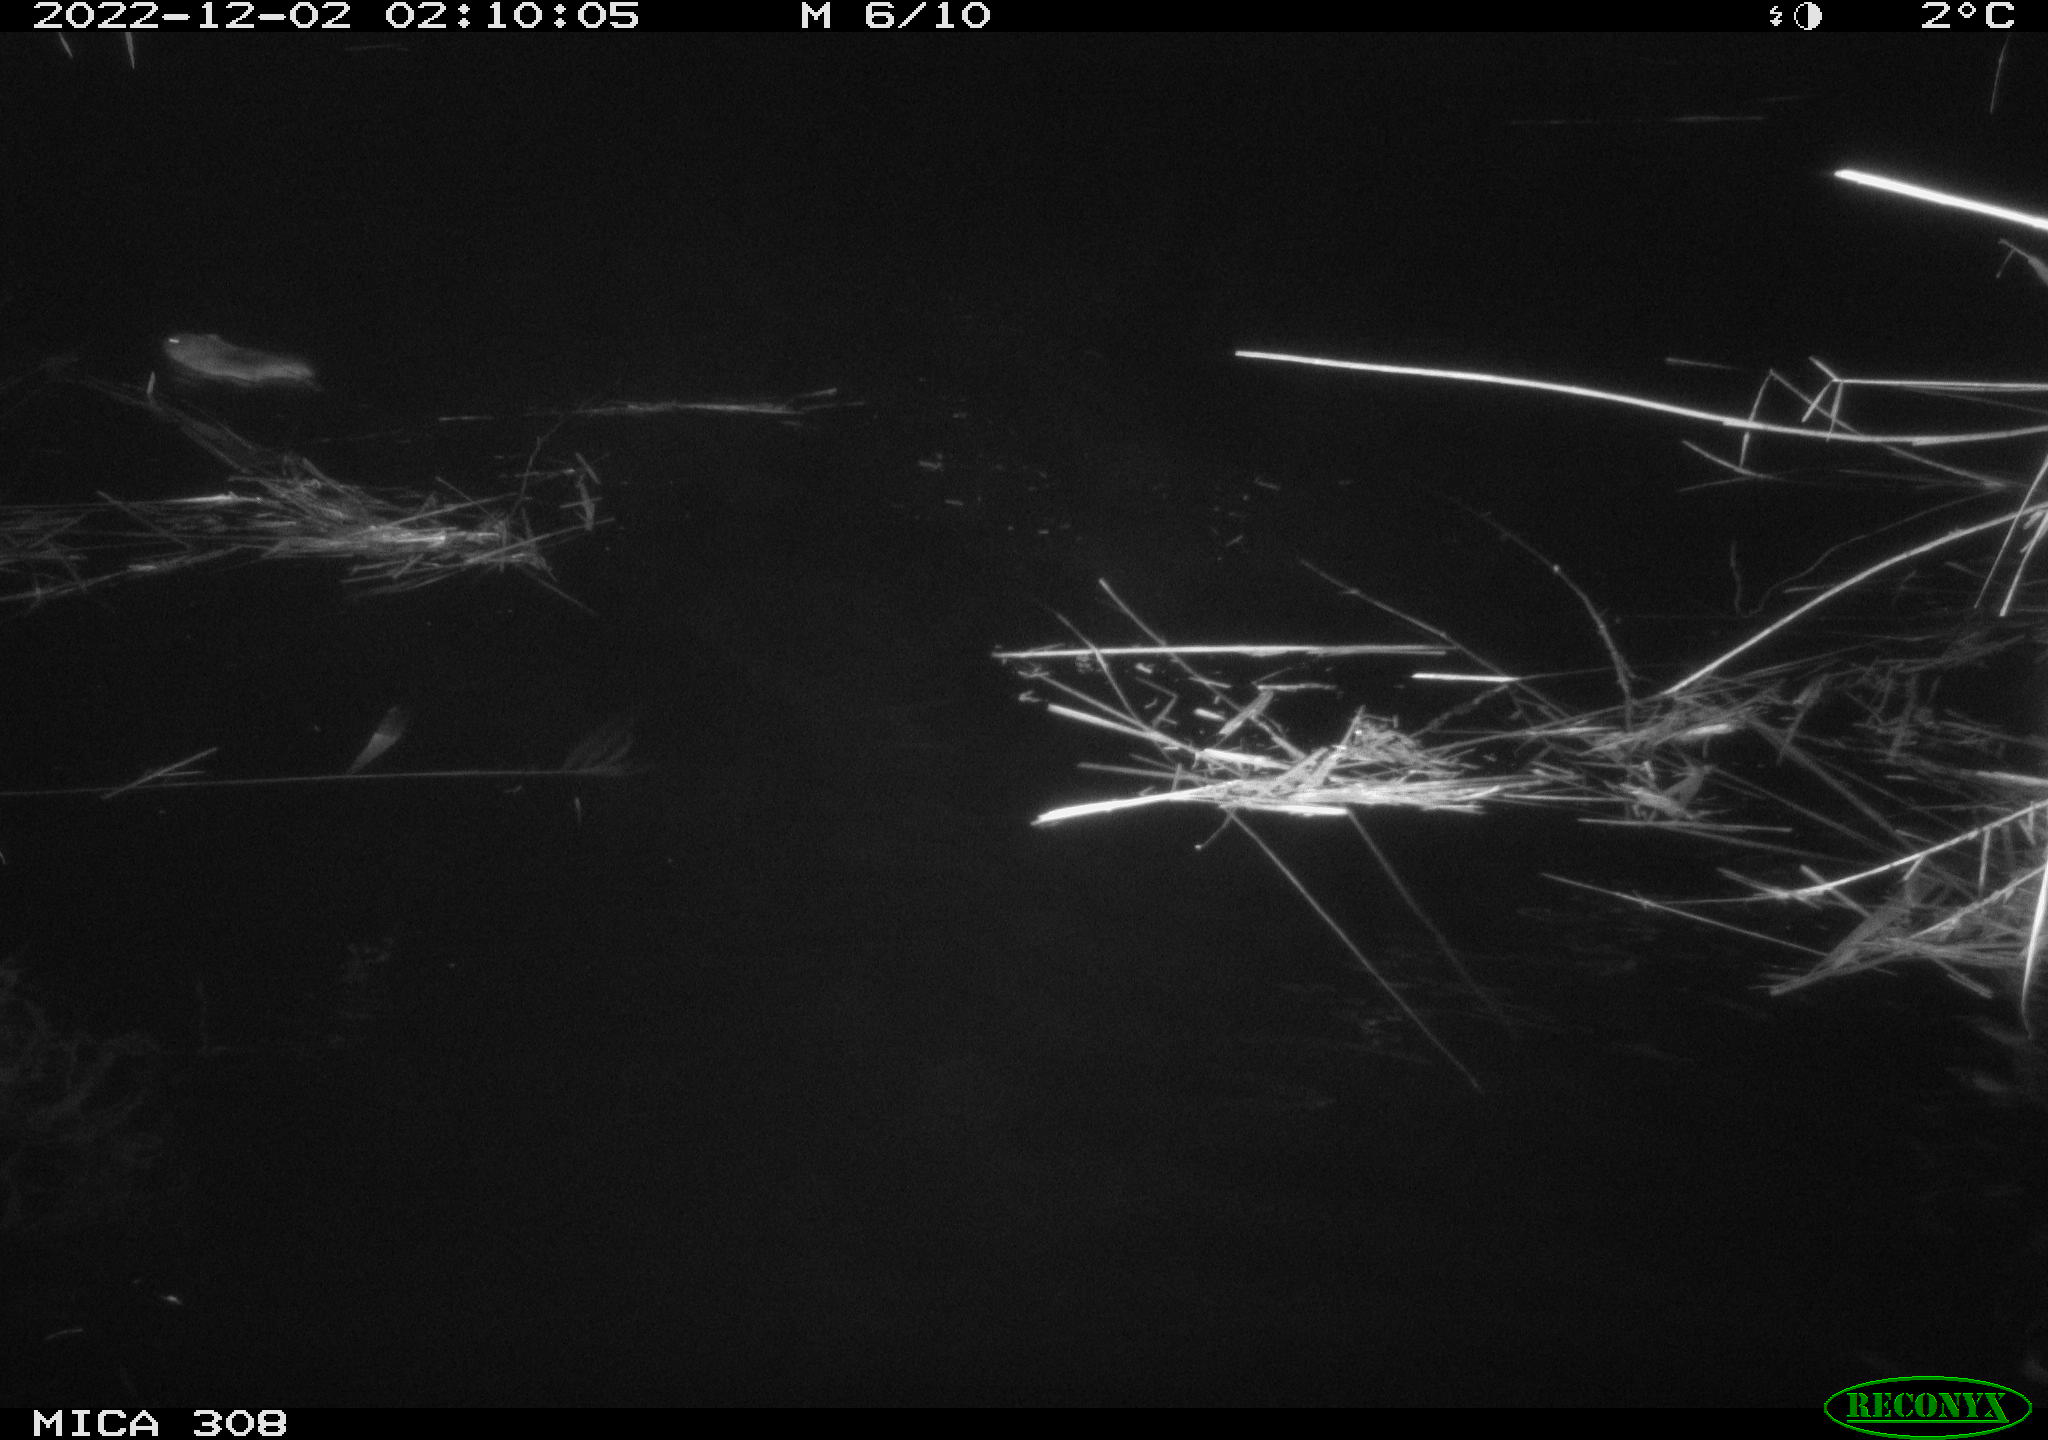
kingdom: Animalia
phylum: Chordata
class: Mammalia
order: Rodentia
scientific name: Rodentia
